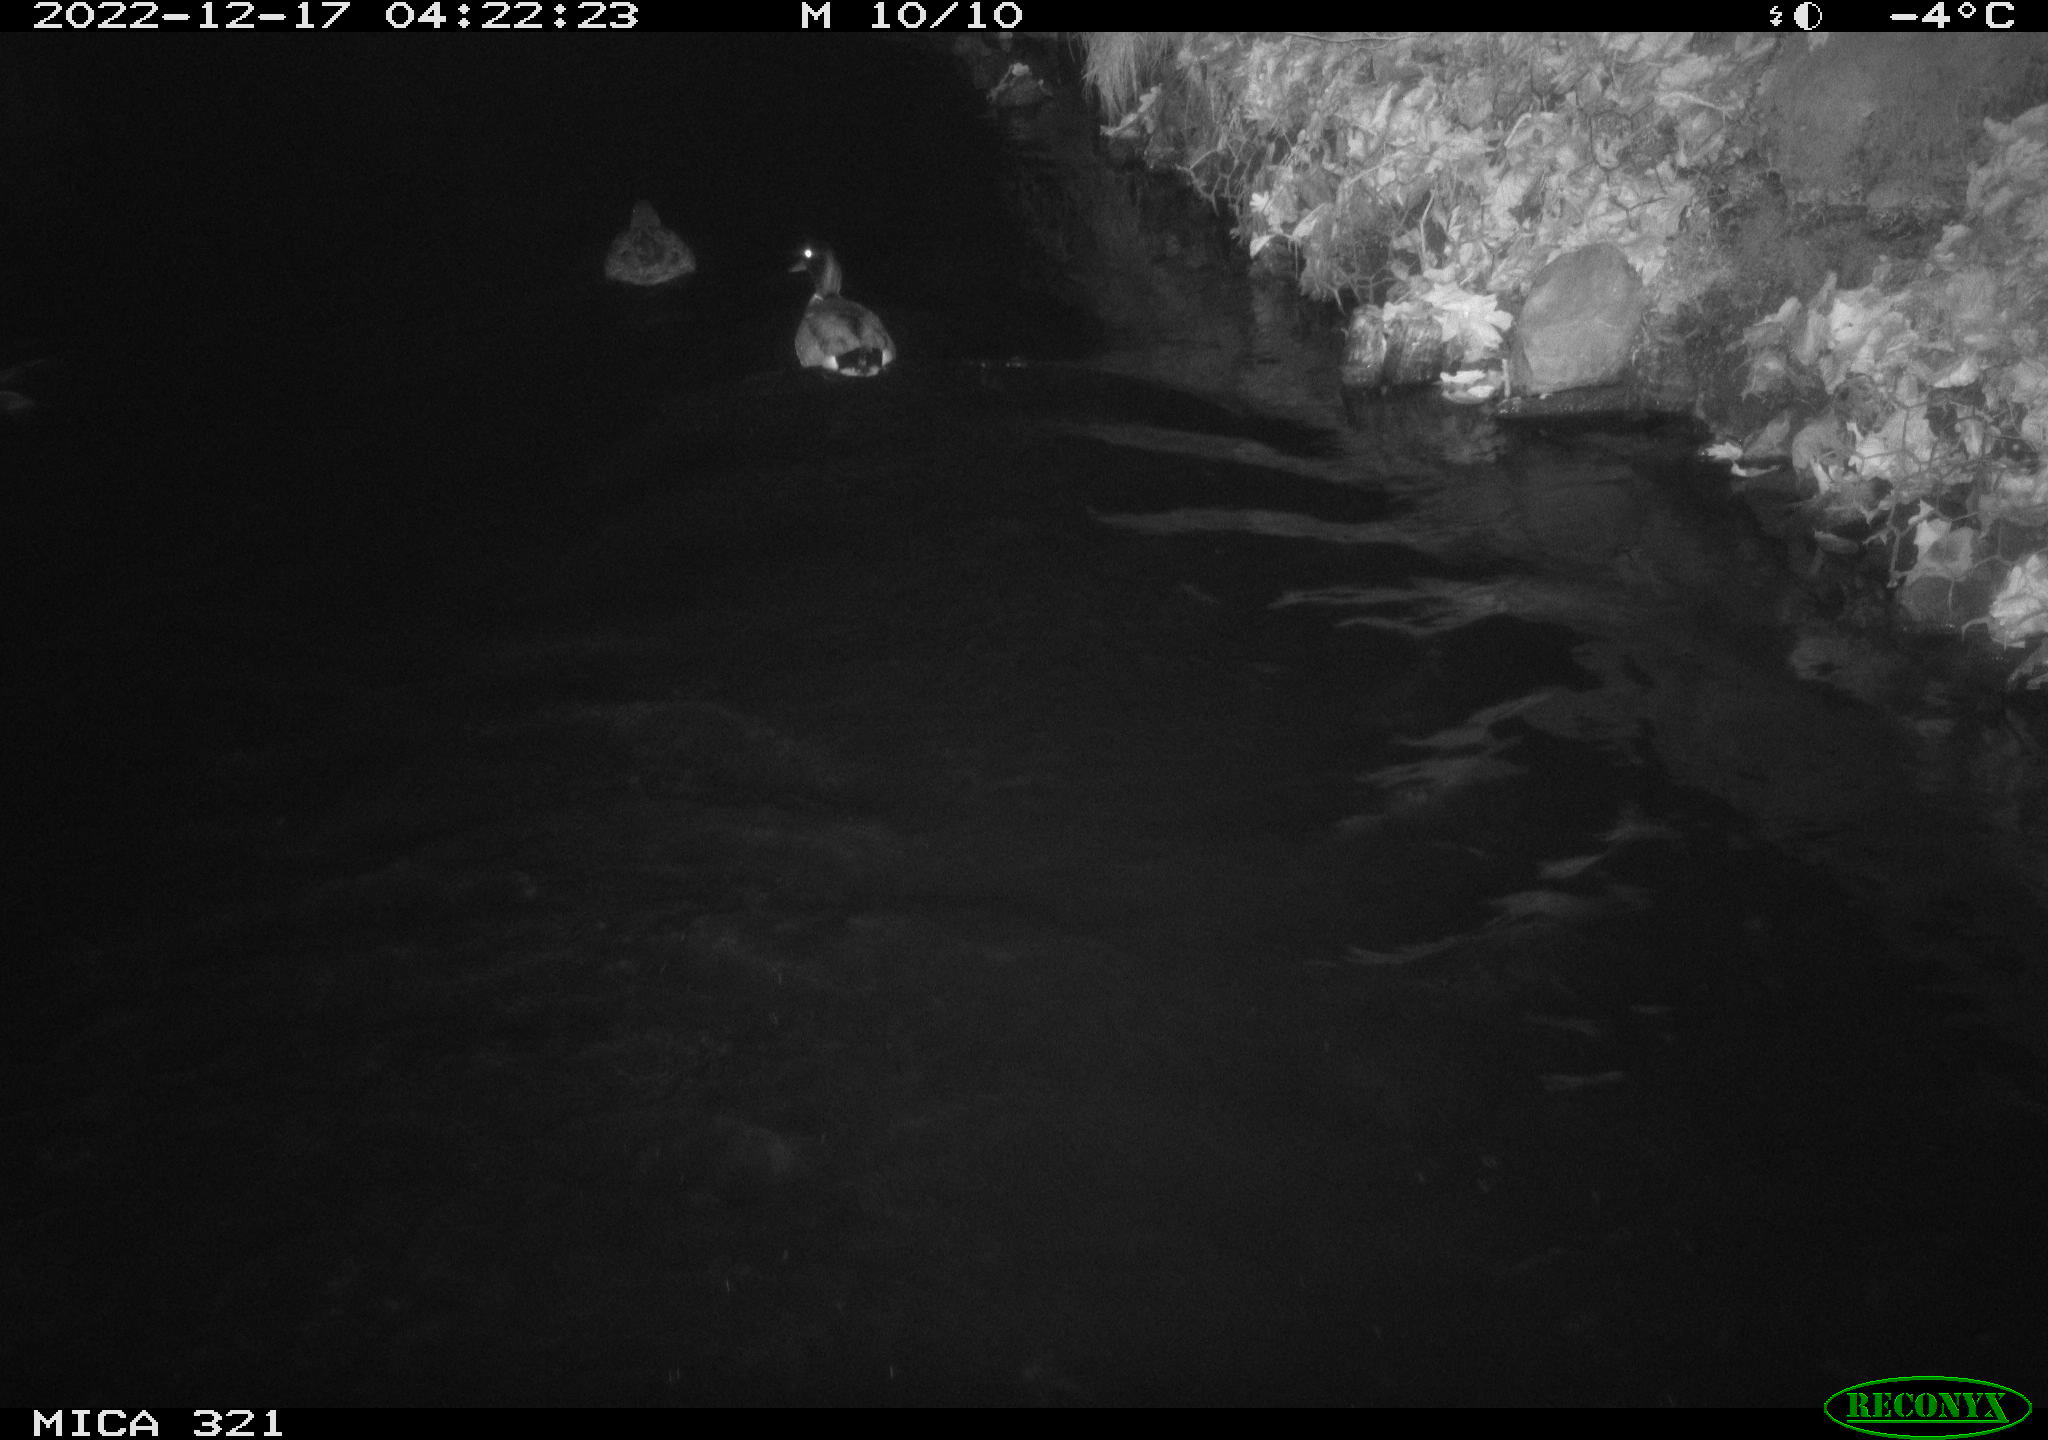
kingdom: Animalia
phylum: Chordata
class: Aves
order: Anseriformes
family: Anatidae
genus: Anas
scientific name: Anas
